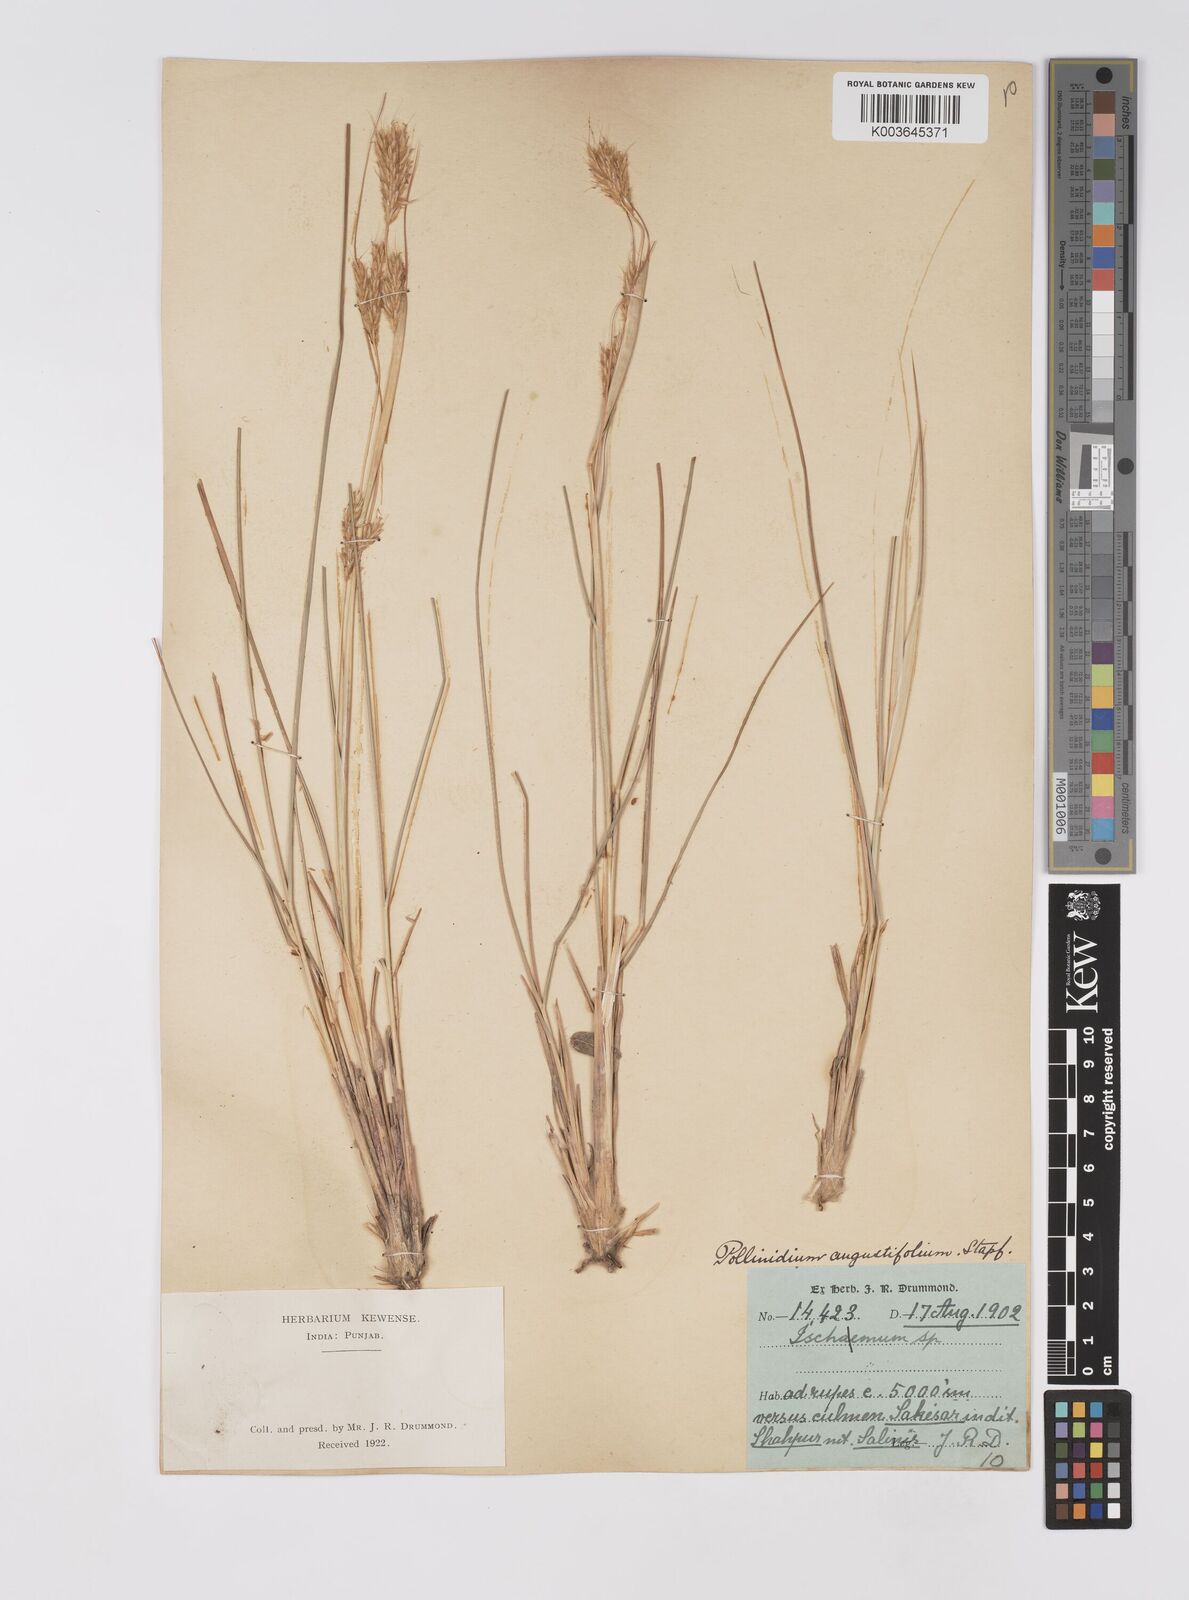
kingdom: Plantae
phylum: Tracheophyta
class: Liliopsida
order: Poales
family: Poaceae
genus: Eulaliopsis
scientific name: Eulaliopsis binata
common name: Baib grass
